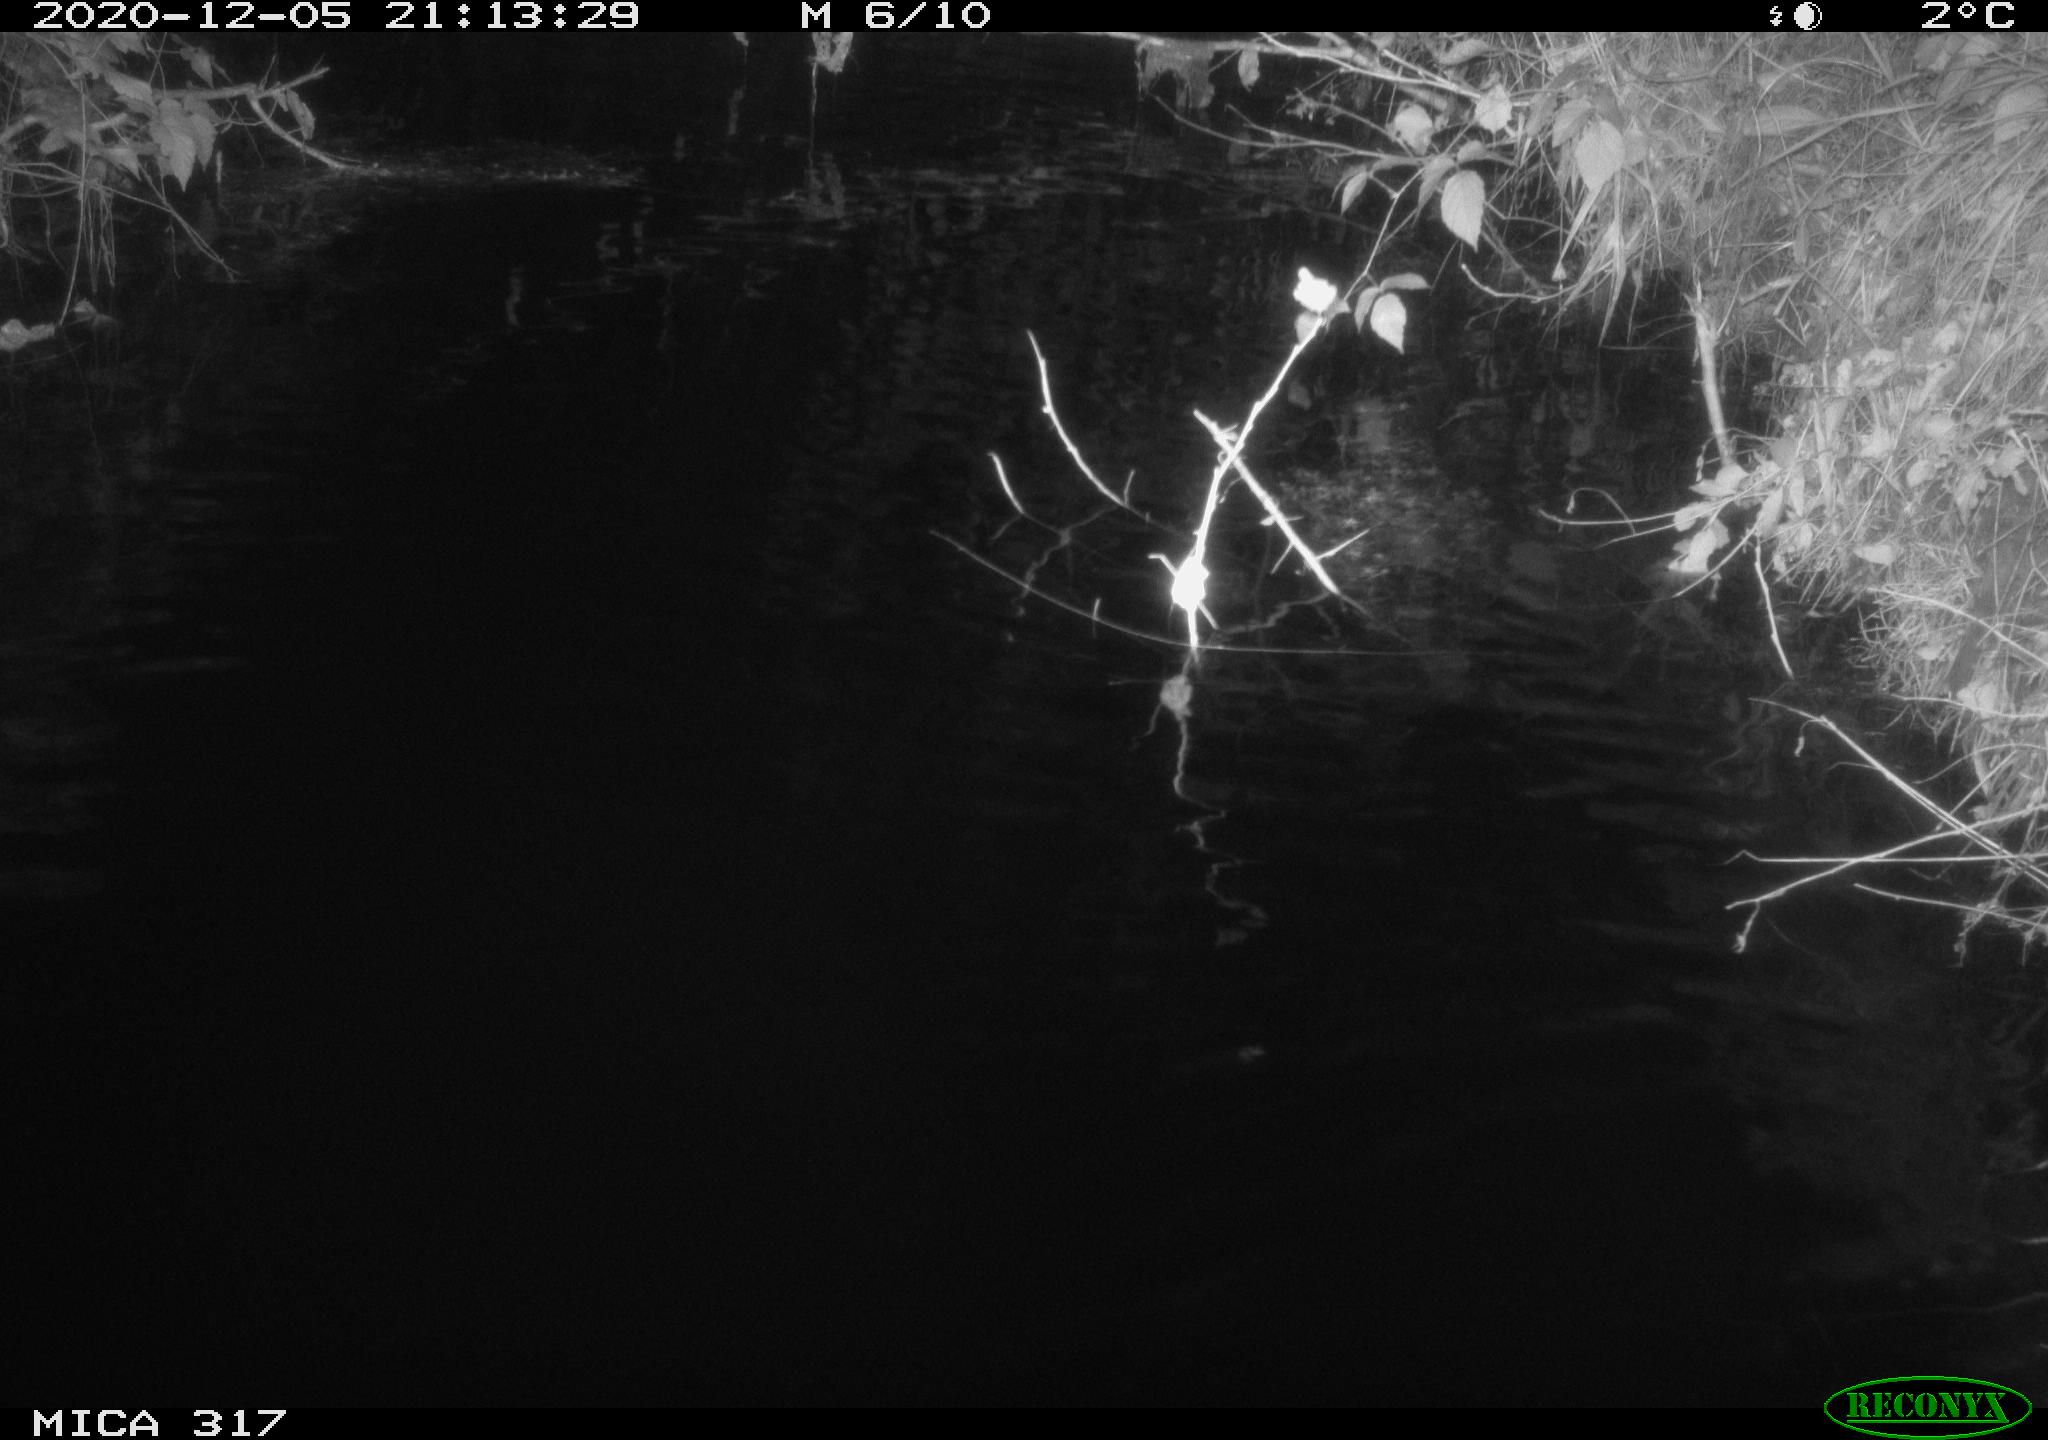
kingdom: Animalia
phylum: Chordata
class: Aves
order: Anseriformes
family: Anatidae
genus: Anas
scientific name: Anas platyrhynchos
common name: Mallard
